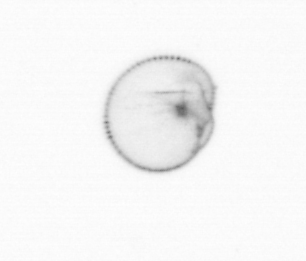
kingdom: Chromista
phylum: Myzozoa
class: Dinophyceae
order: Noctilucales
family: Noctilucaceae
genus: Noctiluca
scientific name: Noctiluca scintillans
